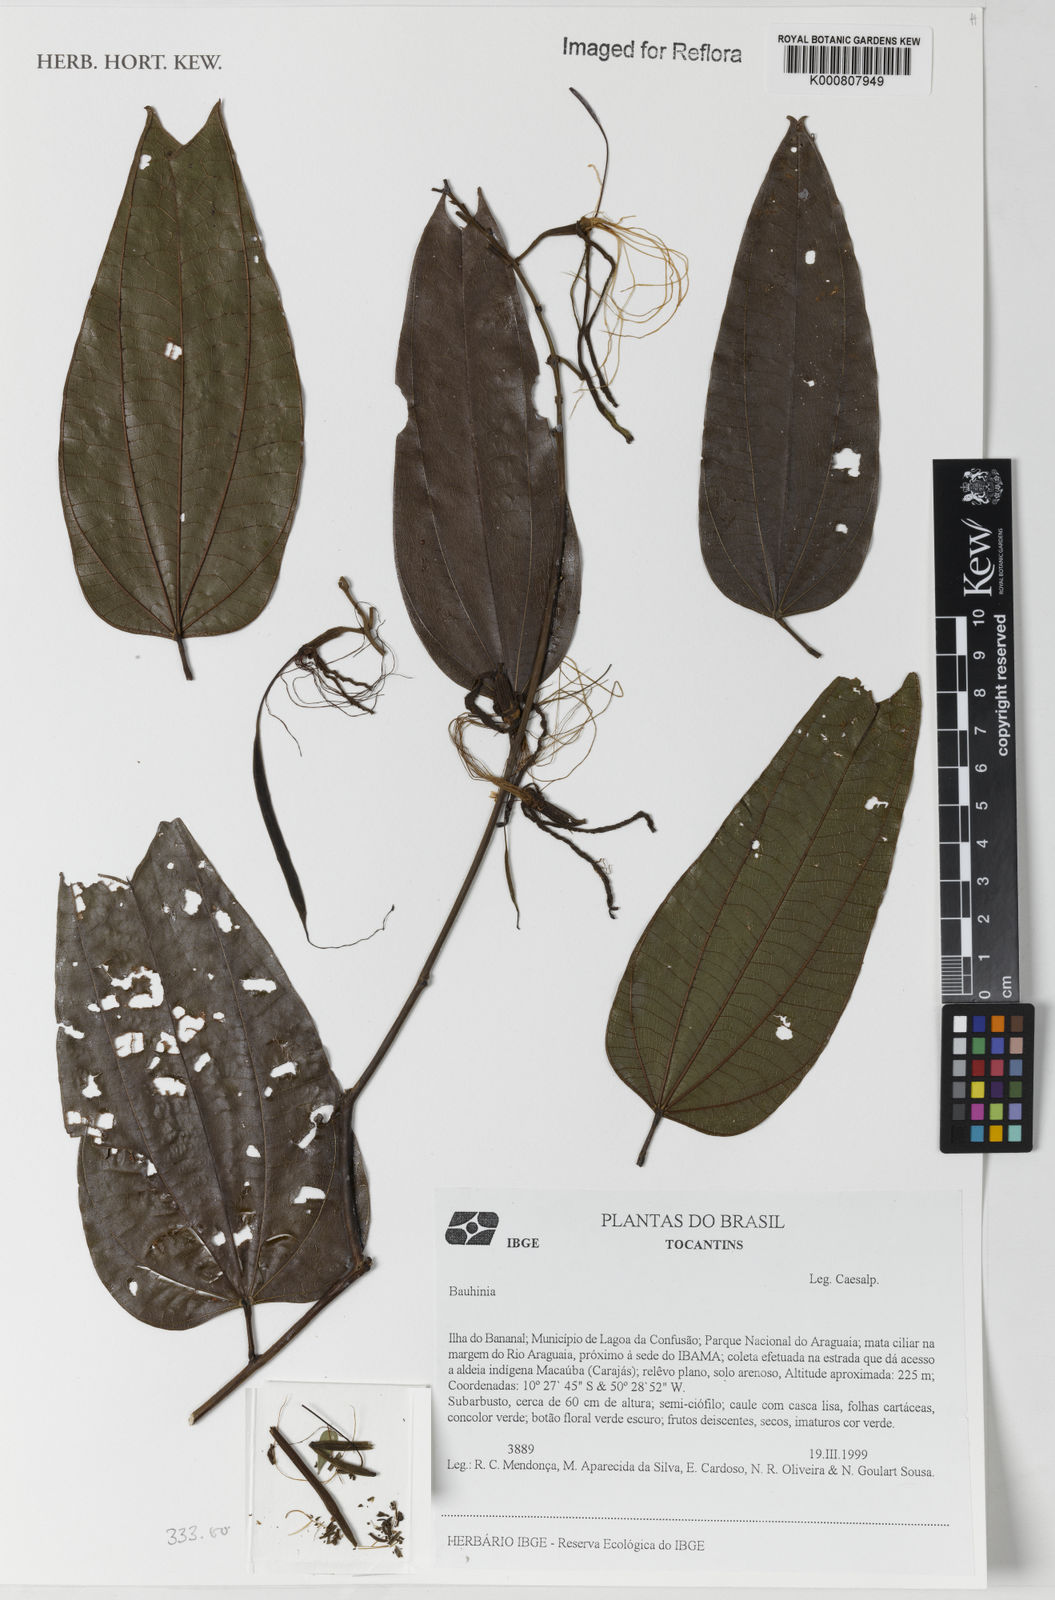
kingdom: Plantae
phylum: Tracheophyta
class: Magnoliopsida
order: Fabales
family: Fabaceae
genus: Bauhinia
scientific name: Bauhinia
